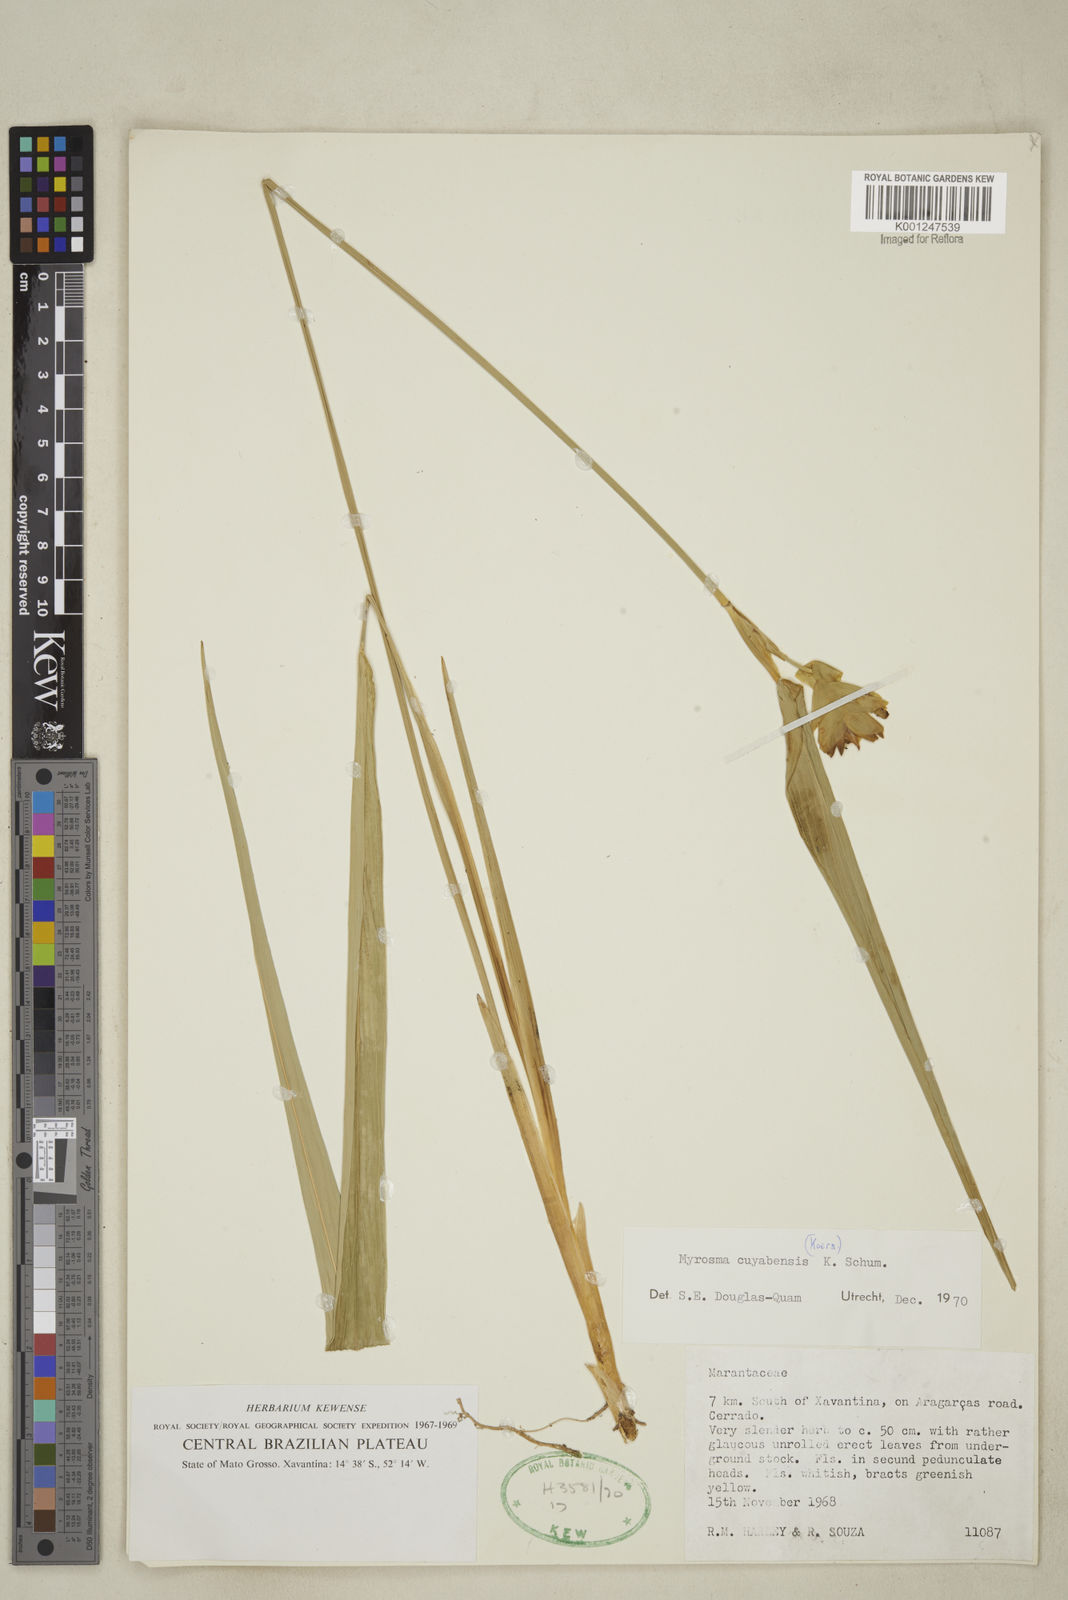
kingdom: Plantae
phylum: Tracheophyta
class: Liliopsida
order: Zingiberales
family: Marantaceae
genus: Myrosma
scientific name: Myrosma cannifolia
